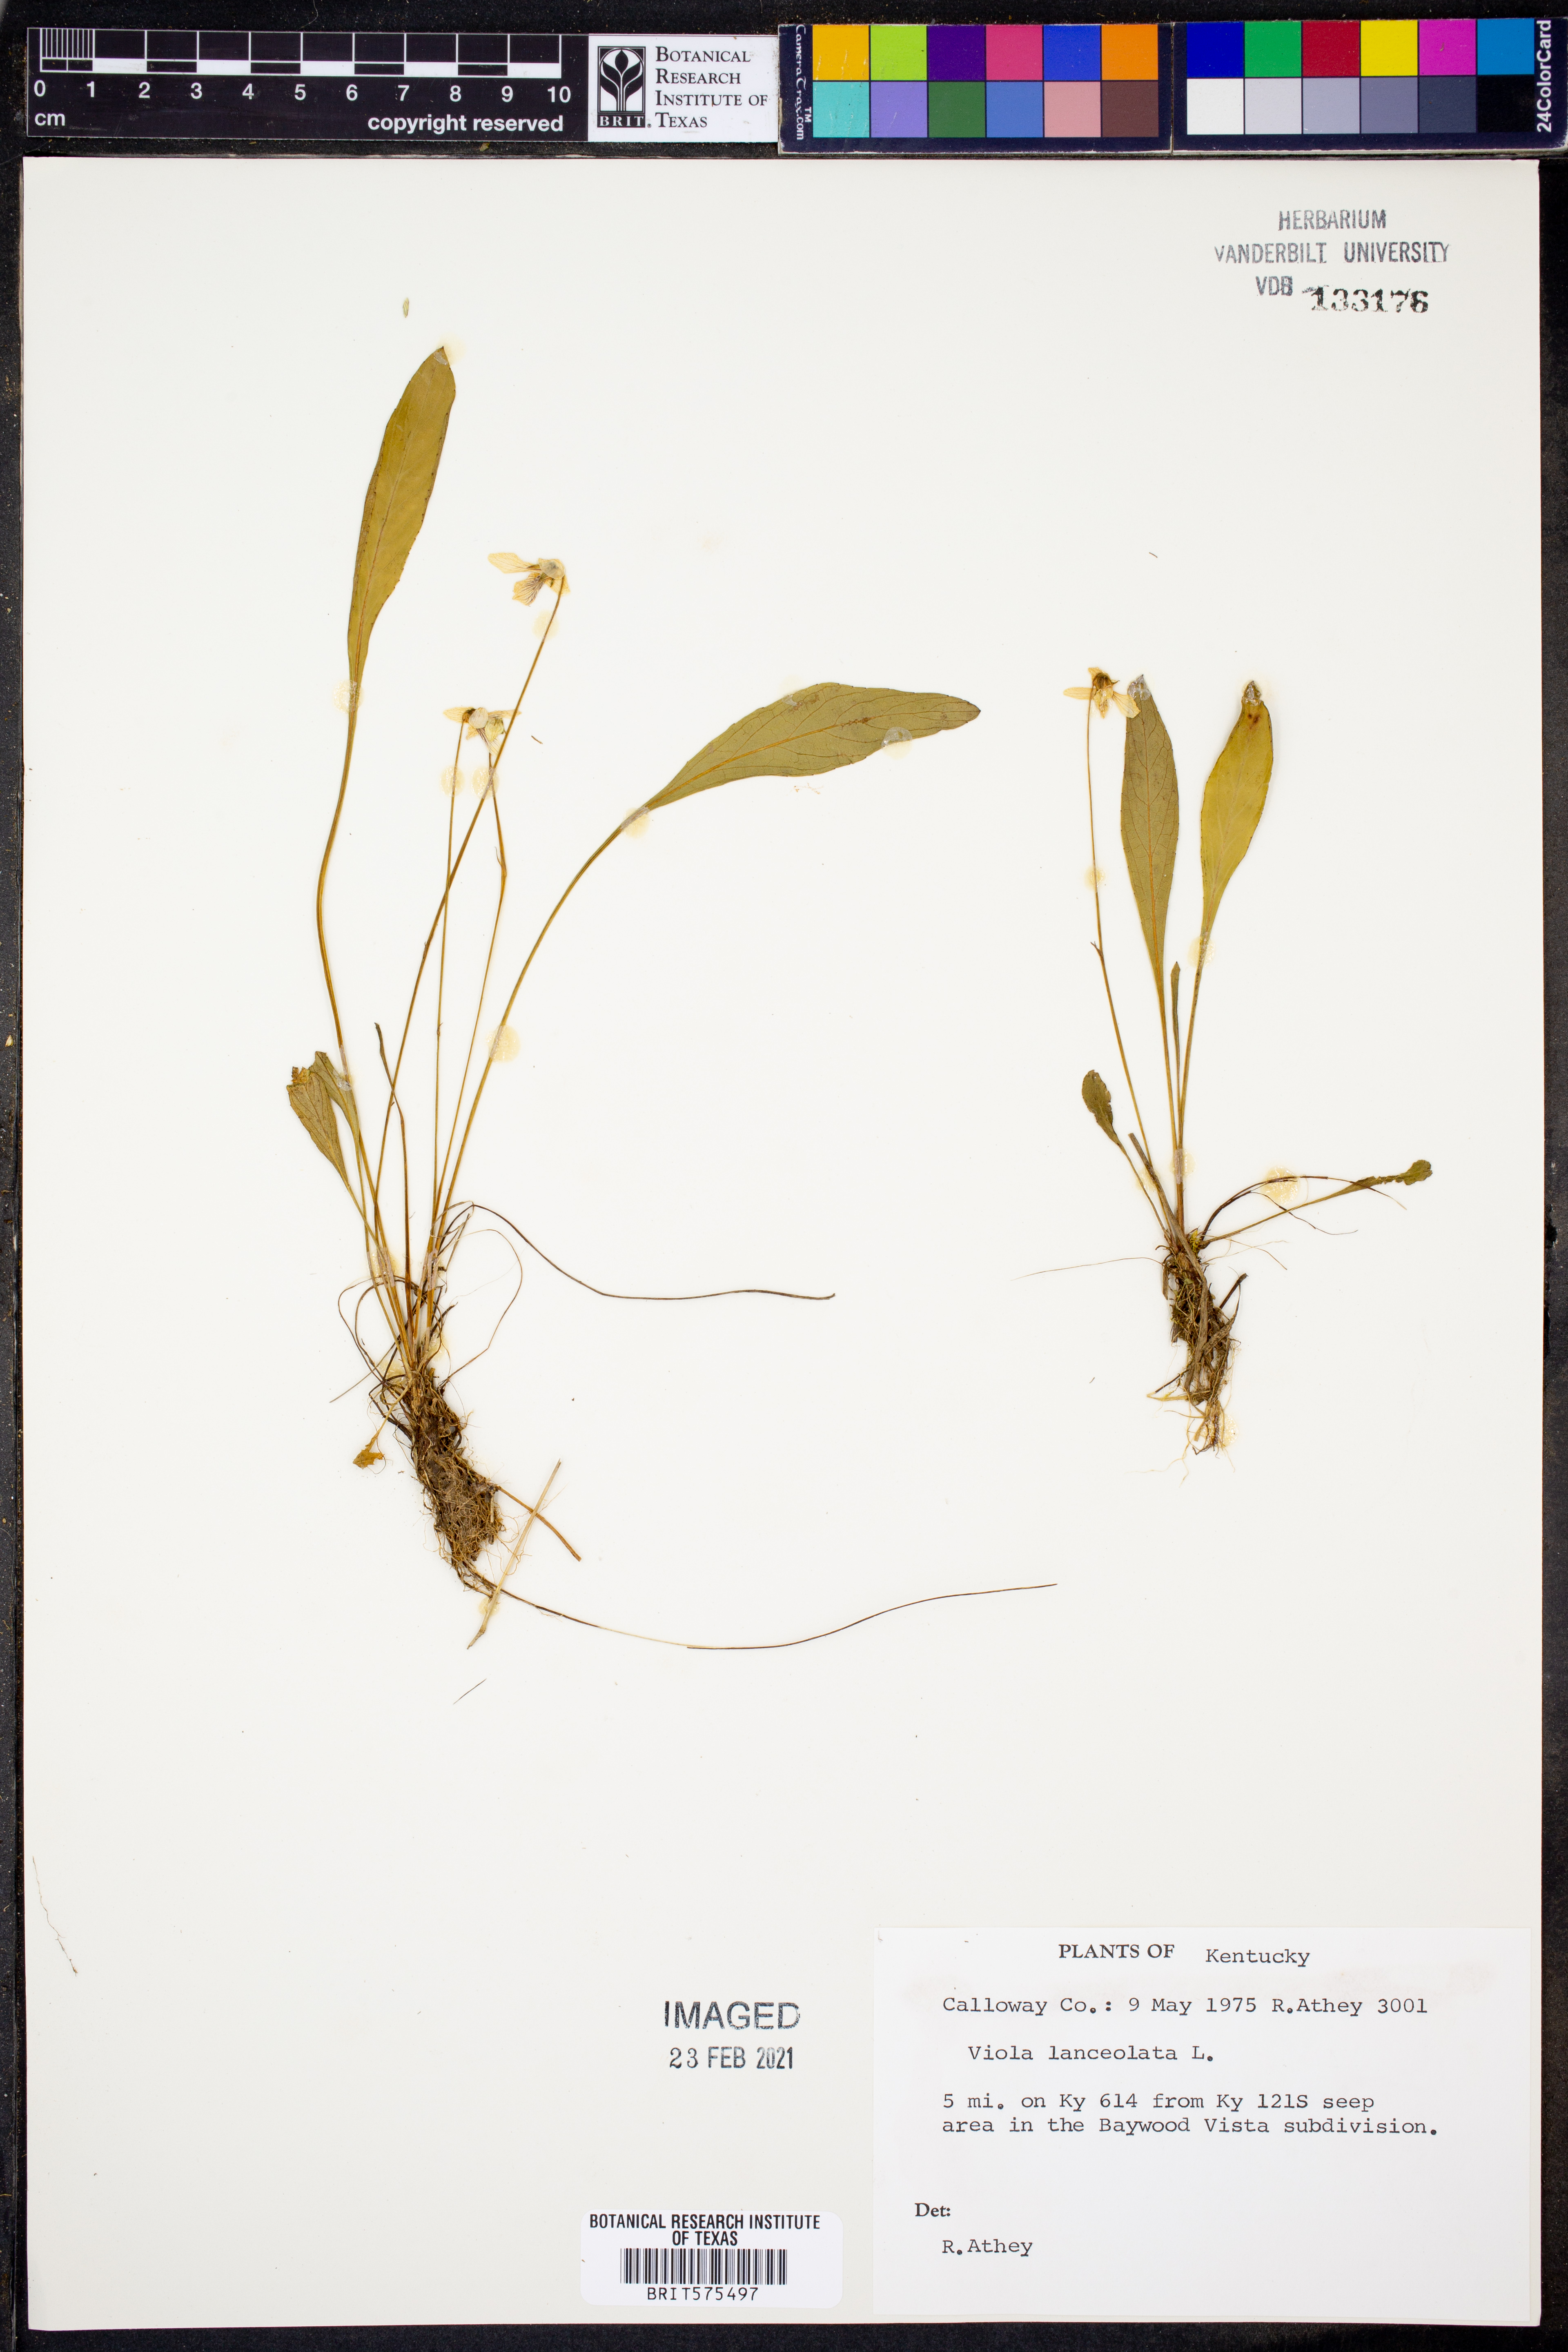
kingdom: Plantae
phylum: Tracheophyta
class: Magnoliopsida
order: Malpighiales
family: Violaceae
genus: Viola
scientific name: Viola lanceolata
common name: Bog white violet
